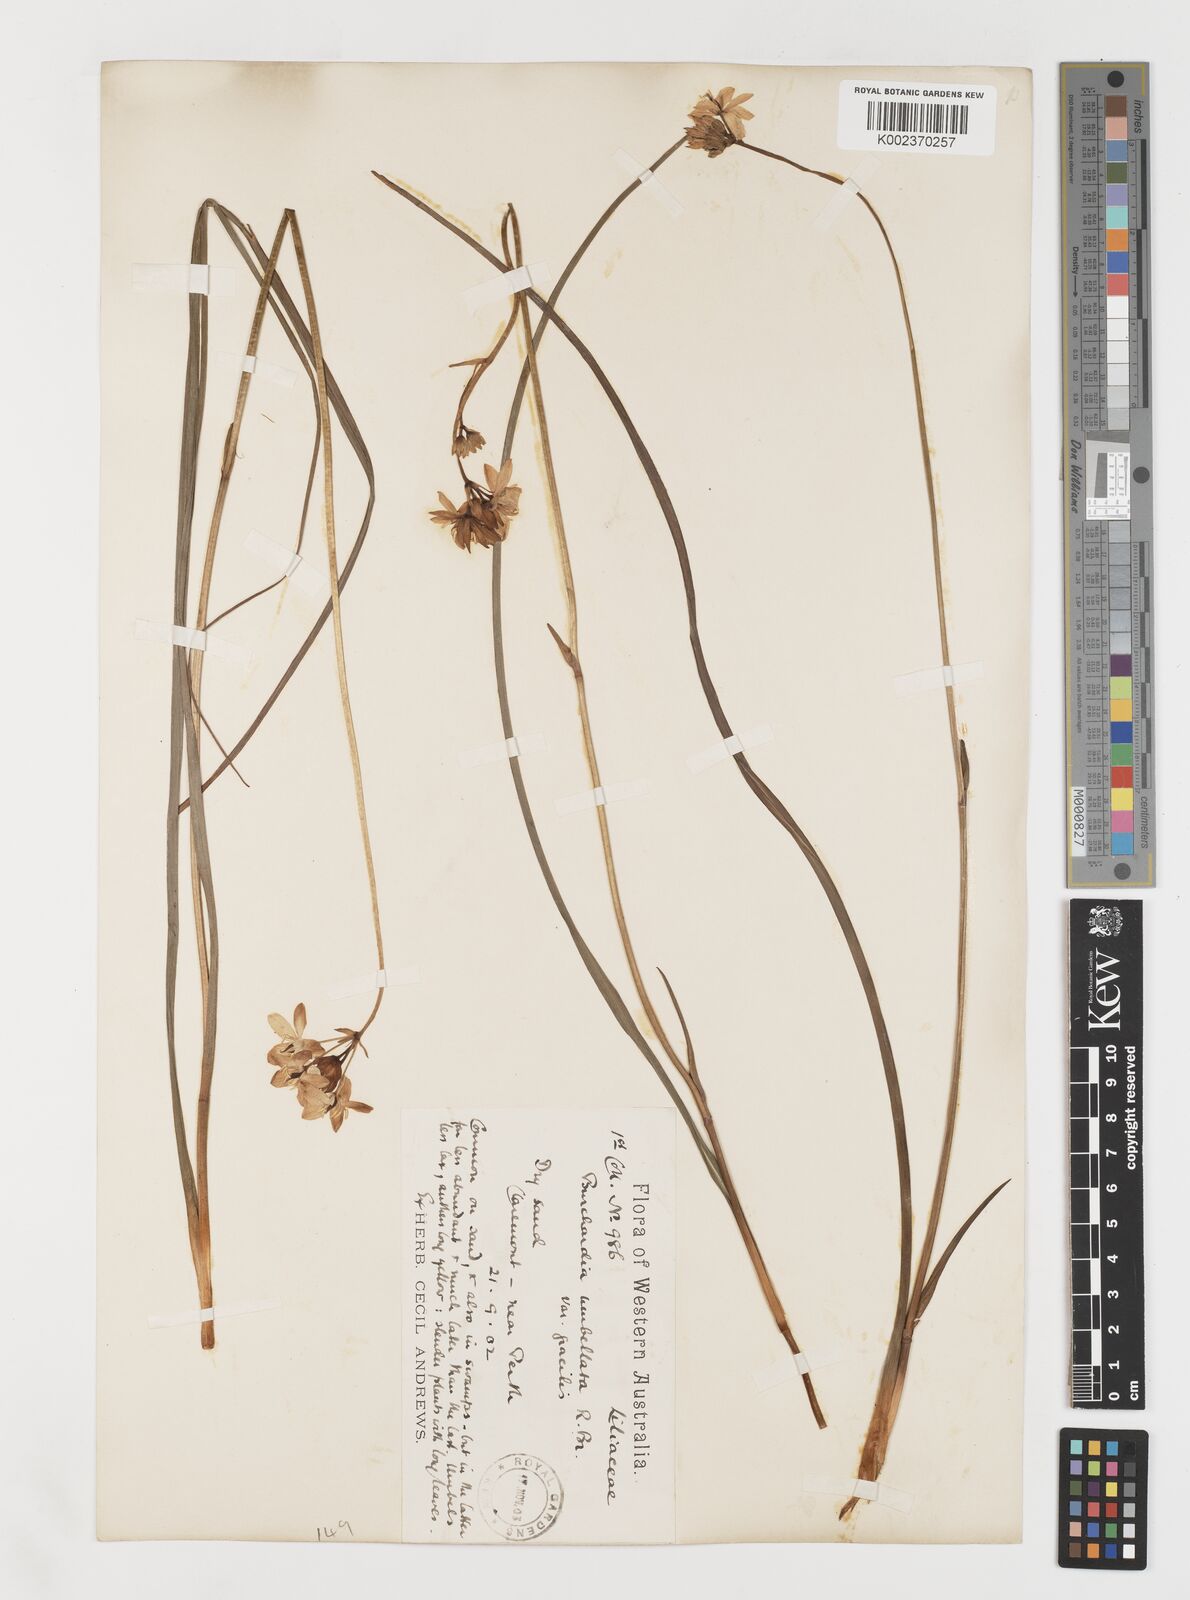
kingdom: Plantae
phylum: Tracheophyta
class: Liliopsida
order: Liliales
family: Colchicaceae
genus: Burchardia
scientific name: Burchardia umbellata
